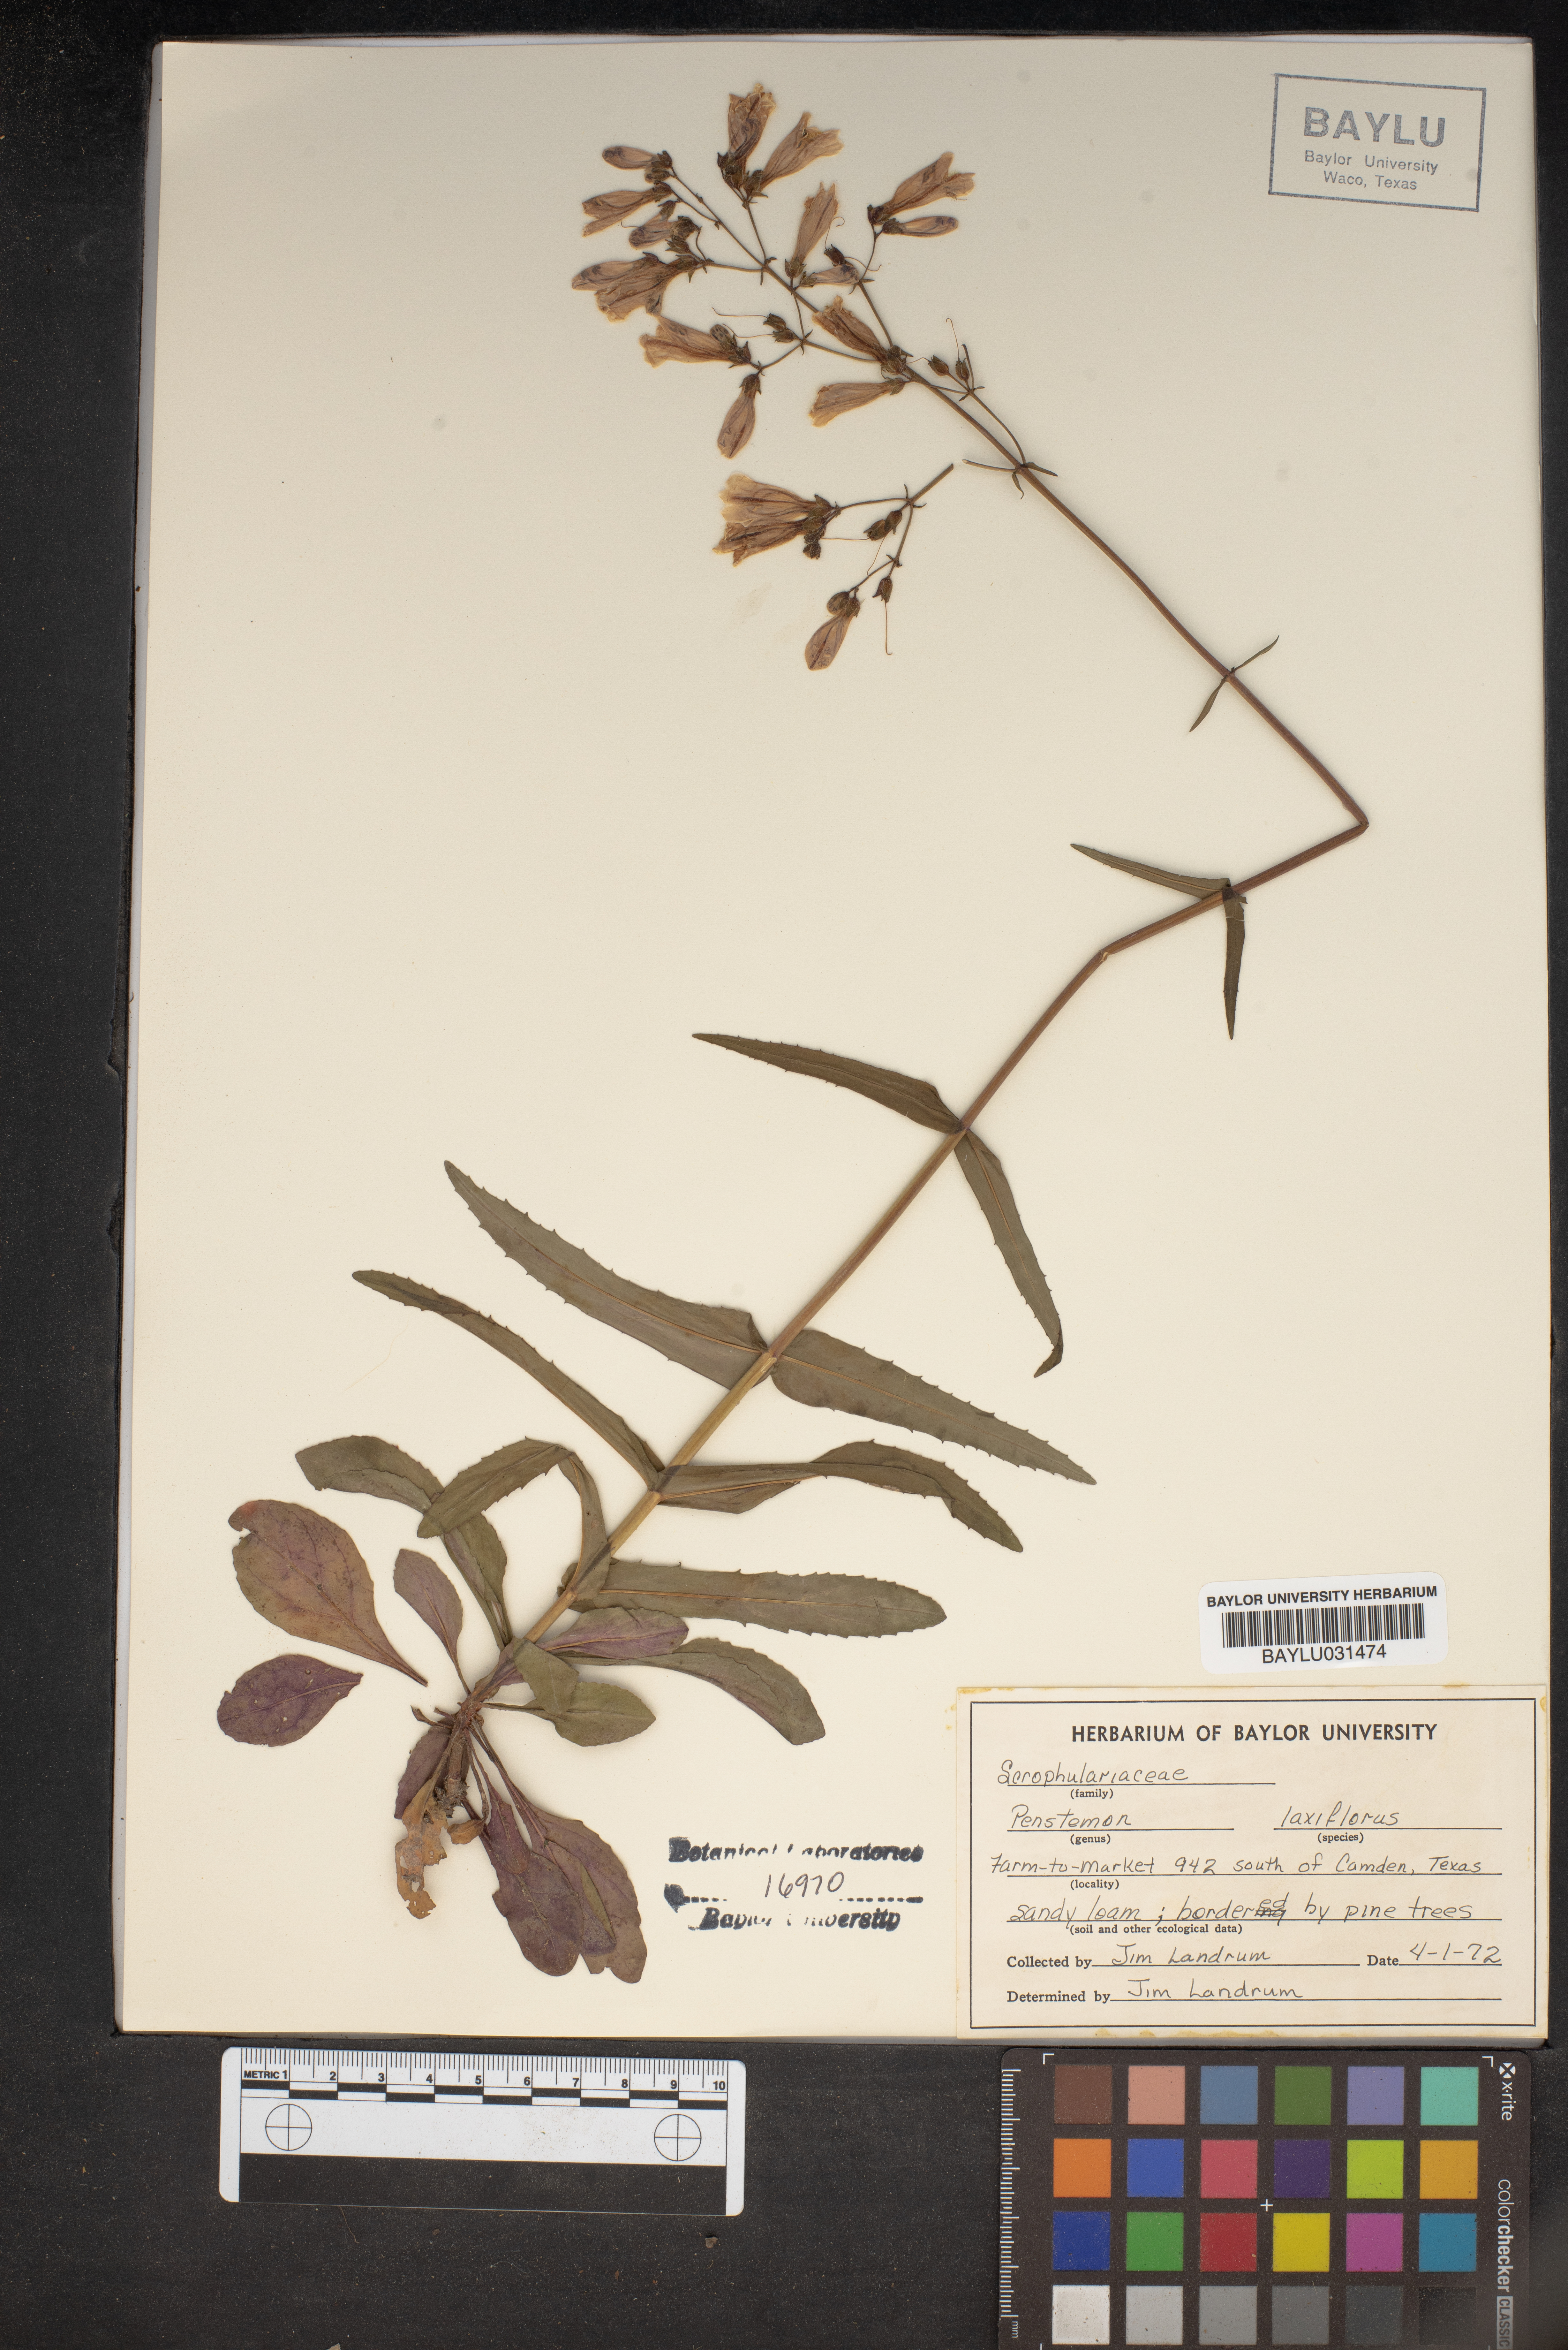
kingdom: Plantae
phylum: Tracheophyta
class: Magnoliopsida
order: Lamiales
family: Plantaginaceae
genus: Penstemon
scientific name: Penstemon laxiflorus
